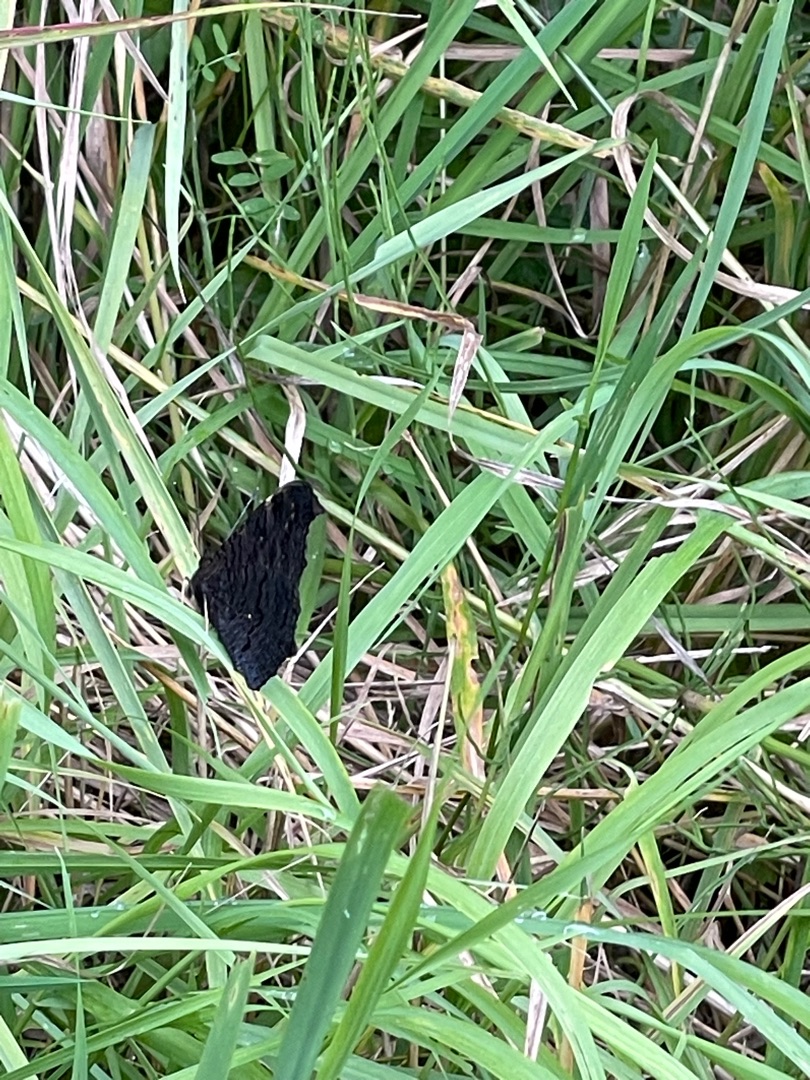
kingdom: Animalia
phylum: Arthropoda
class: Insecta
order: Lepidoptera
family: Nymphalidae
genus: Aglais
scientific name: Aglais io
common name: Dagpåfugleøje
